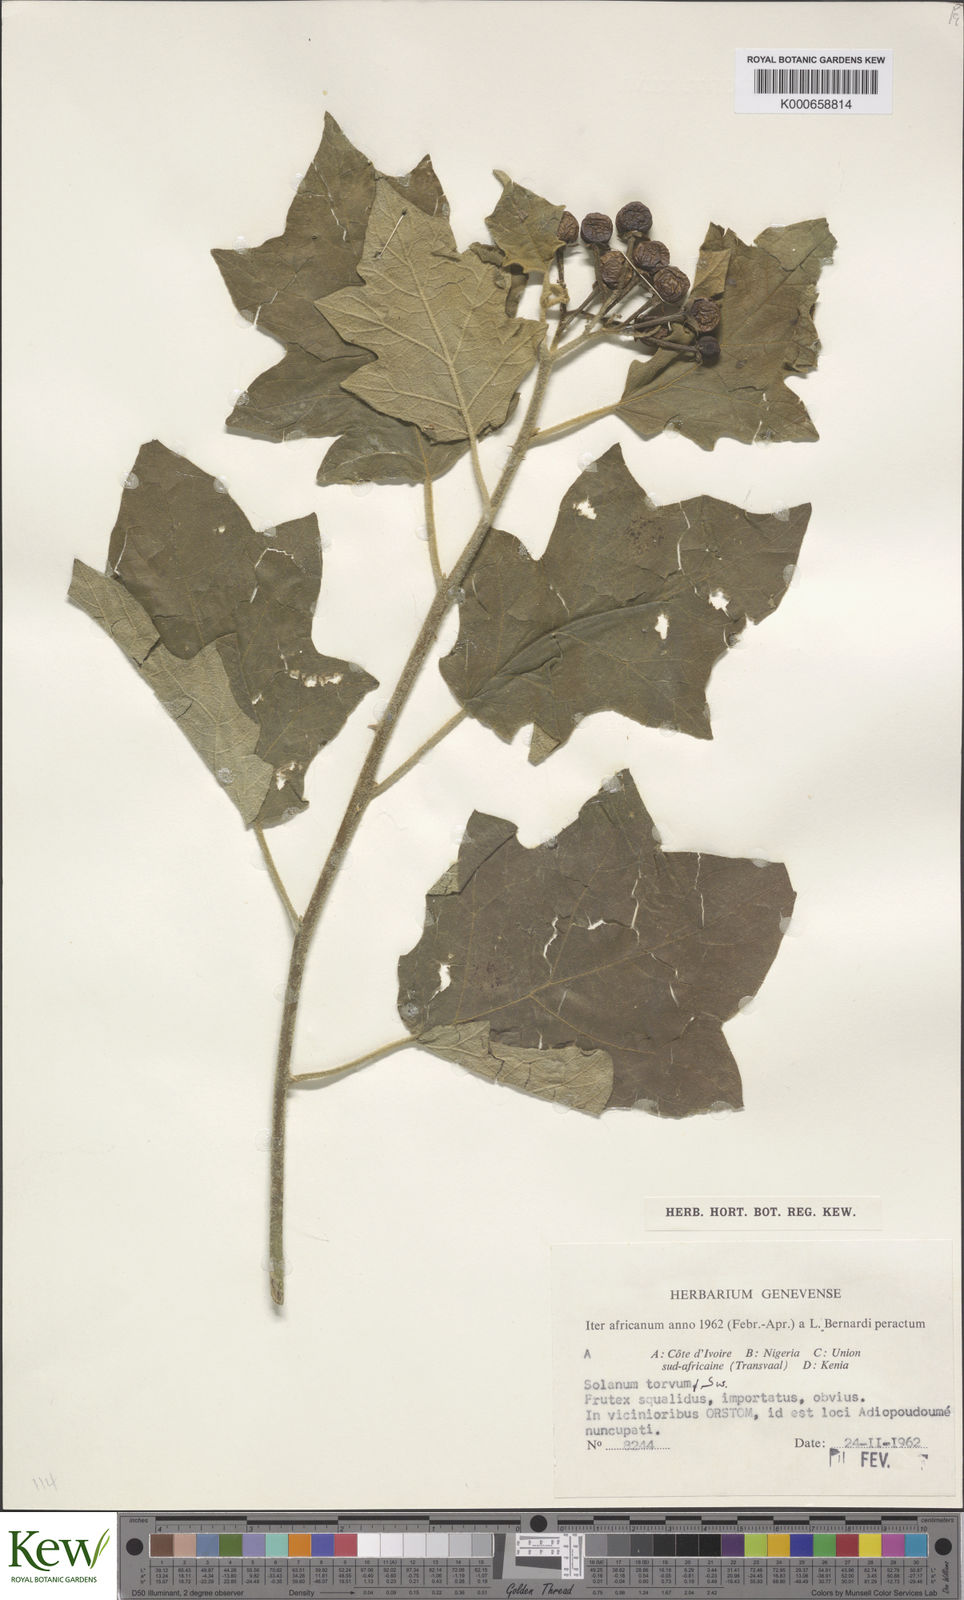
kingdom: Plantae
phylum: Tracheophyta
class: Magnoliopsida
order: Solanales
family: Solanaceae
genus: Solanum
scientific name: Solanum torvum
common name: Turkey berry
